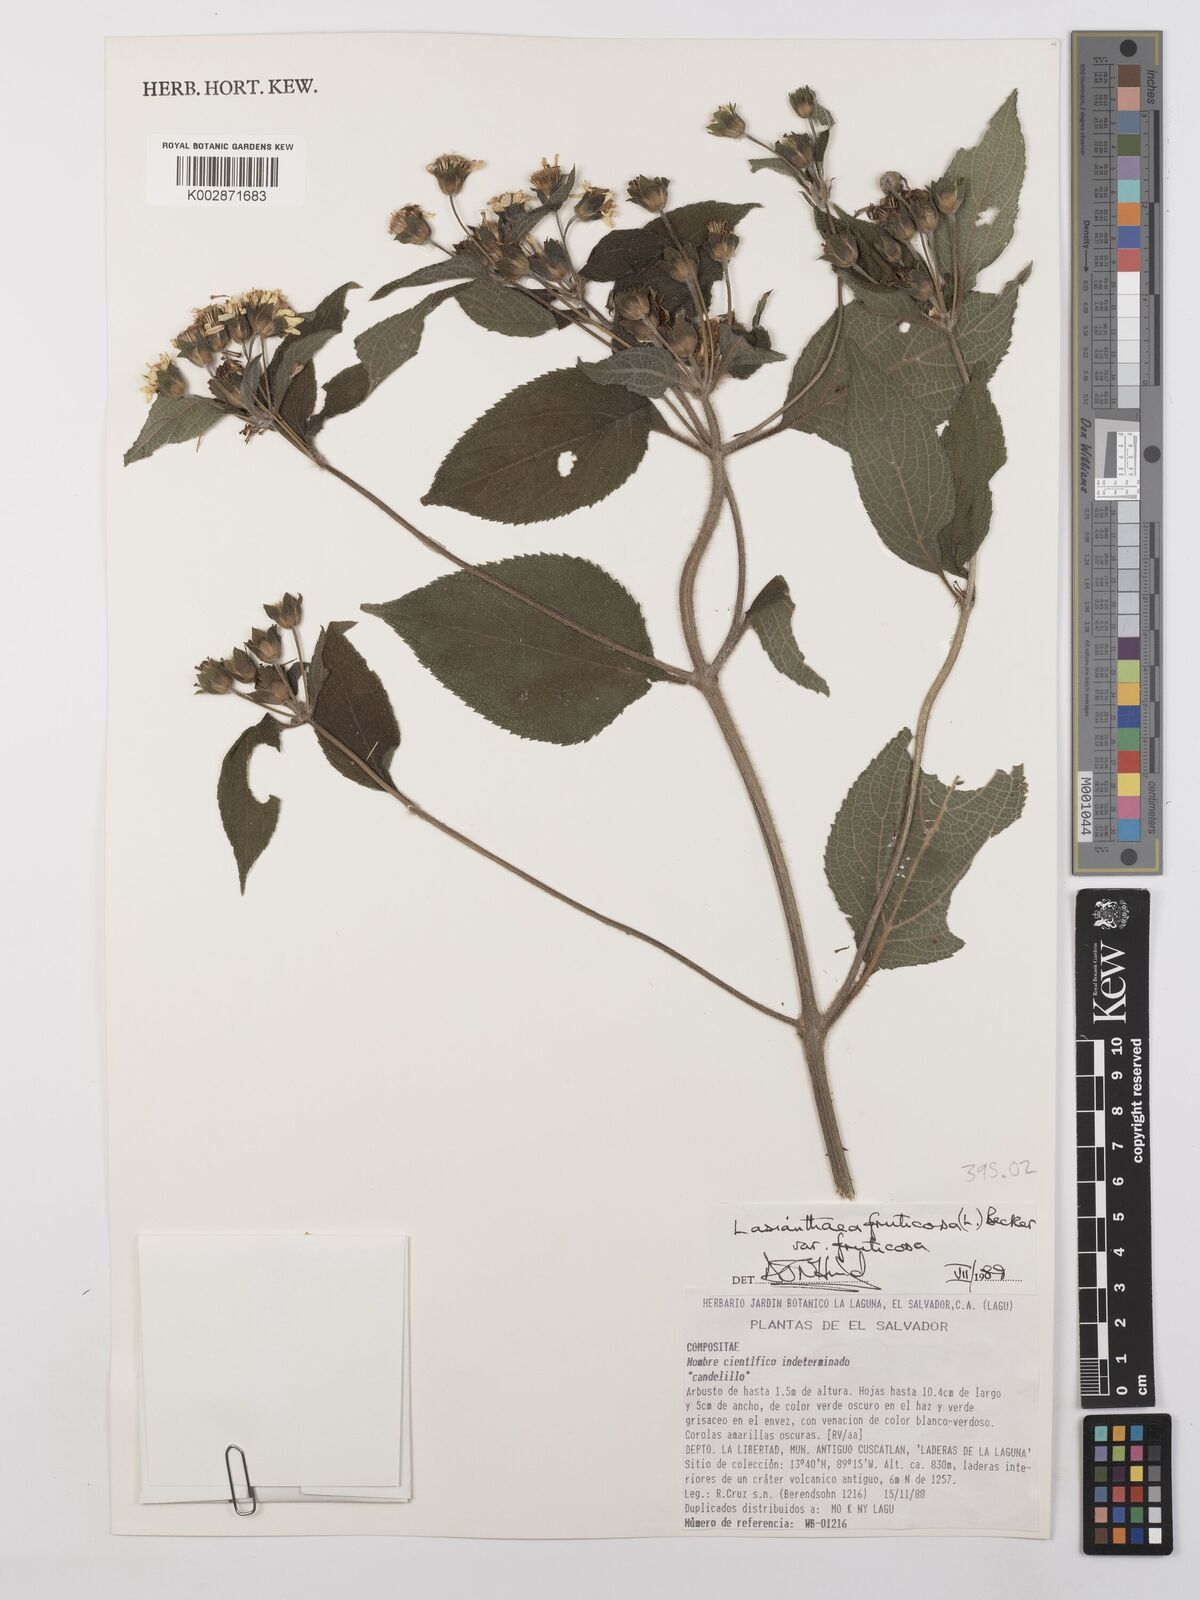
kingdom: Plantae
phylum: Tracheophyta
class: Magnoliopsida
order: Asterales
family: Asteraceae
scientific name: Asteraceae
